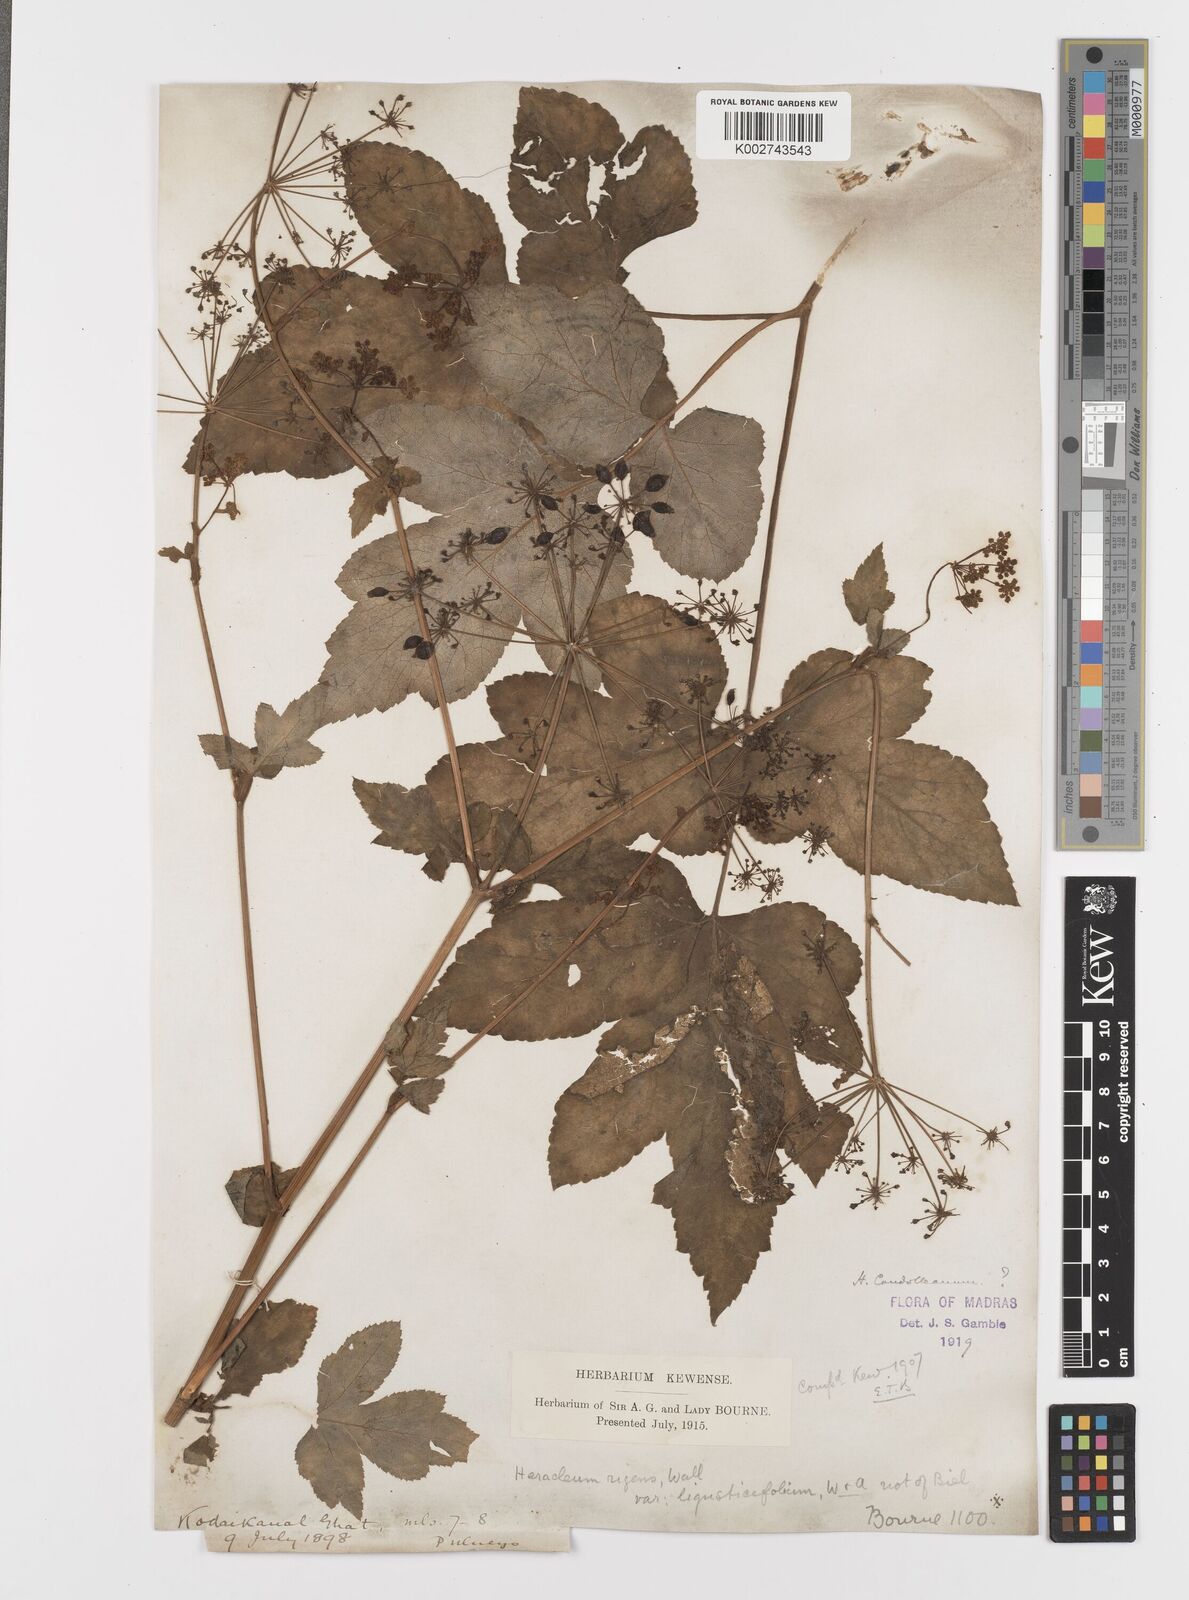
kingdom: Plantae
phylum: Tracheophyta
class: Magnoliopsida
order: Apiales
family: Apiaceae
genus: Tetrataenium
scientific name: Tetrataenium rigens
